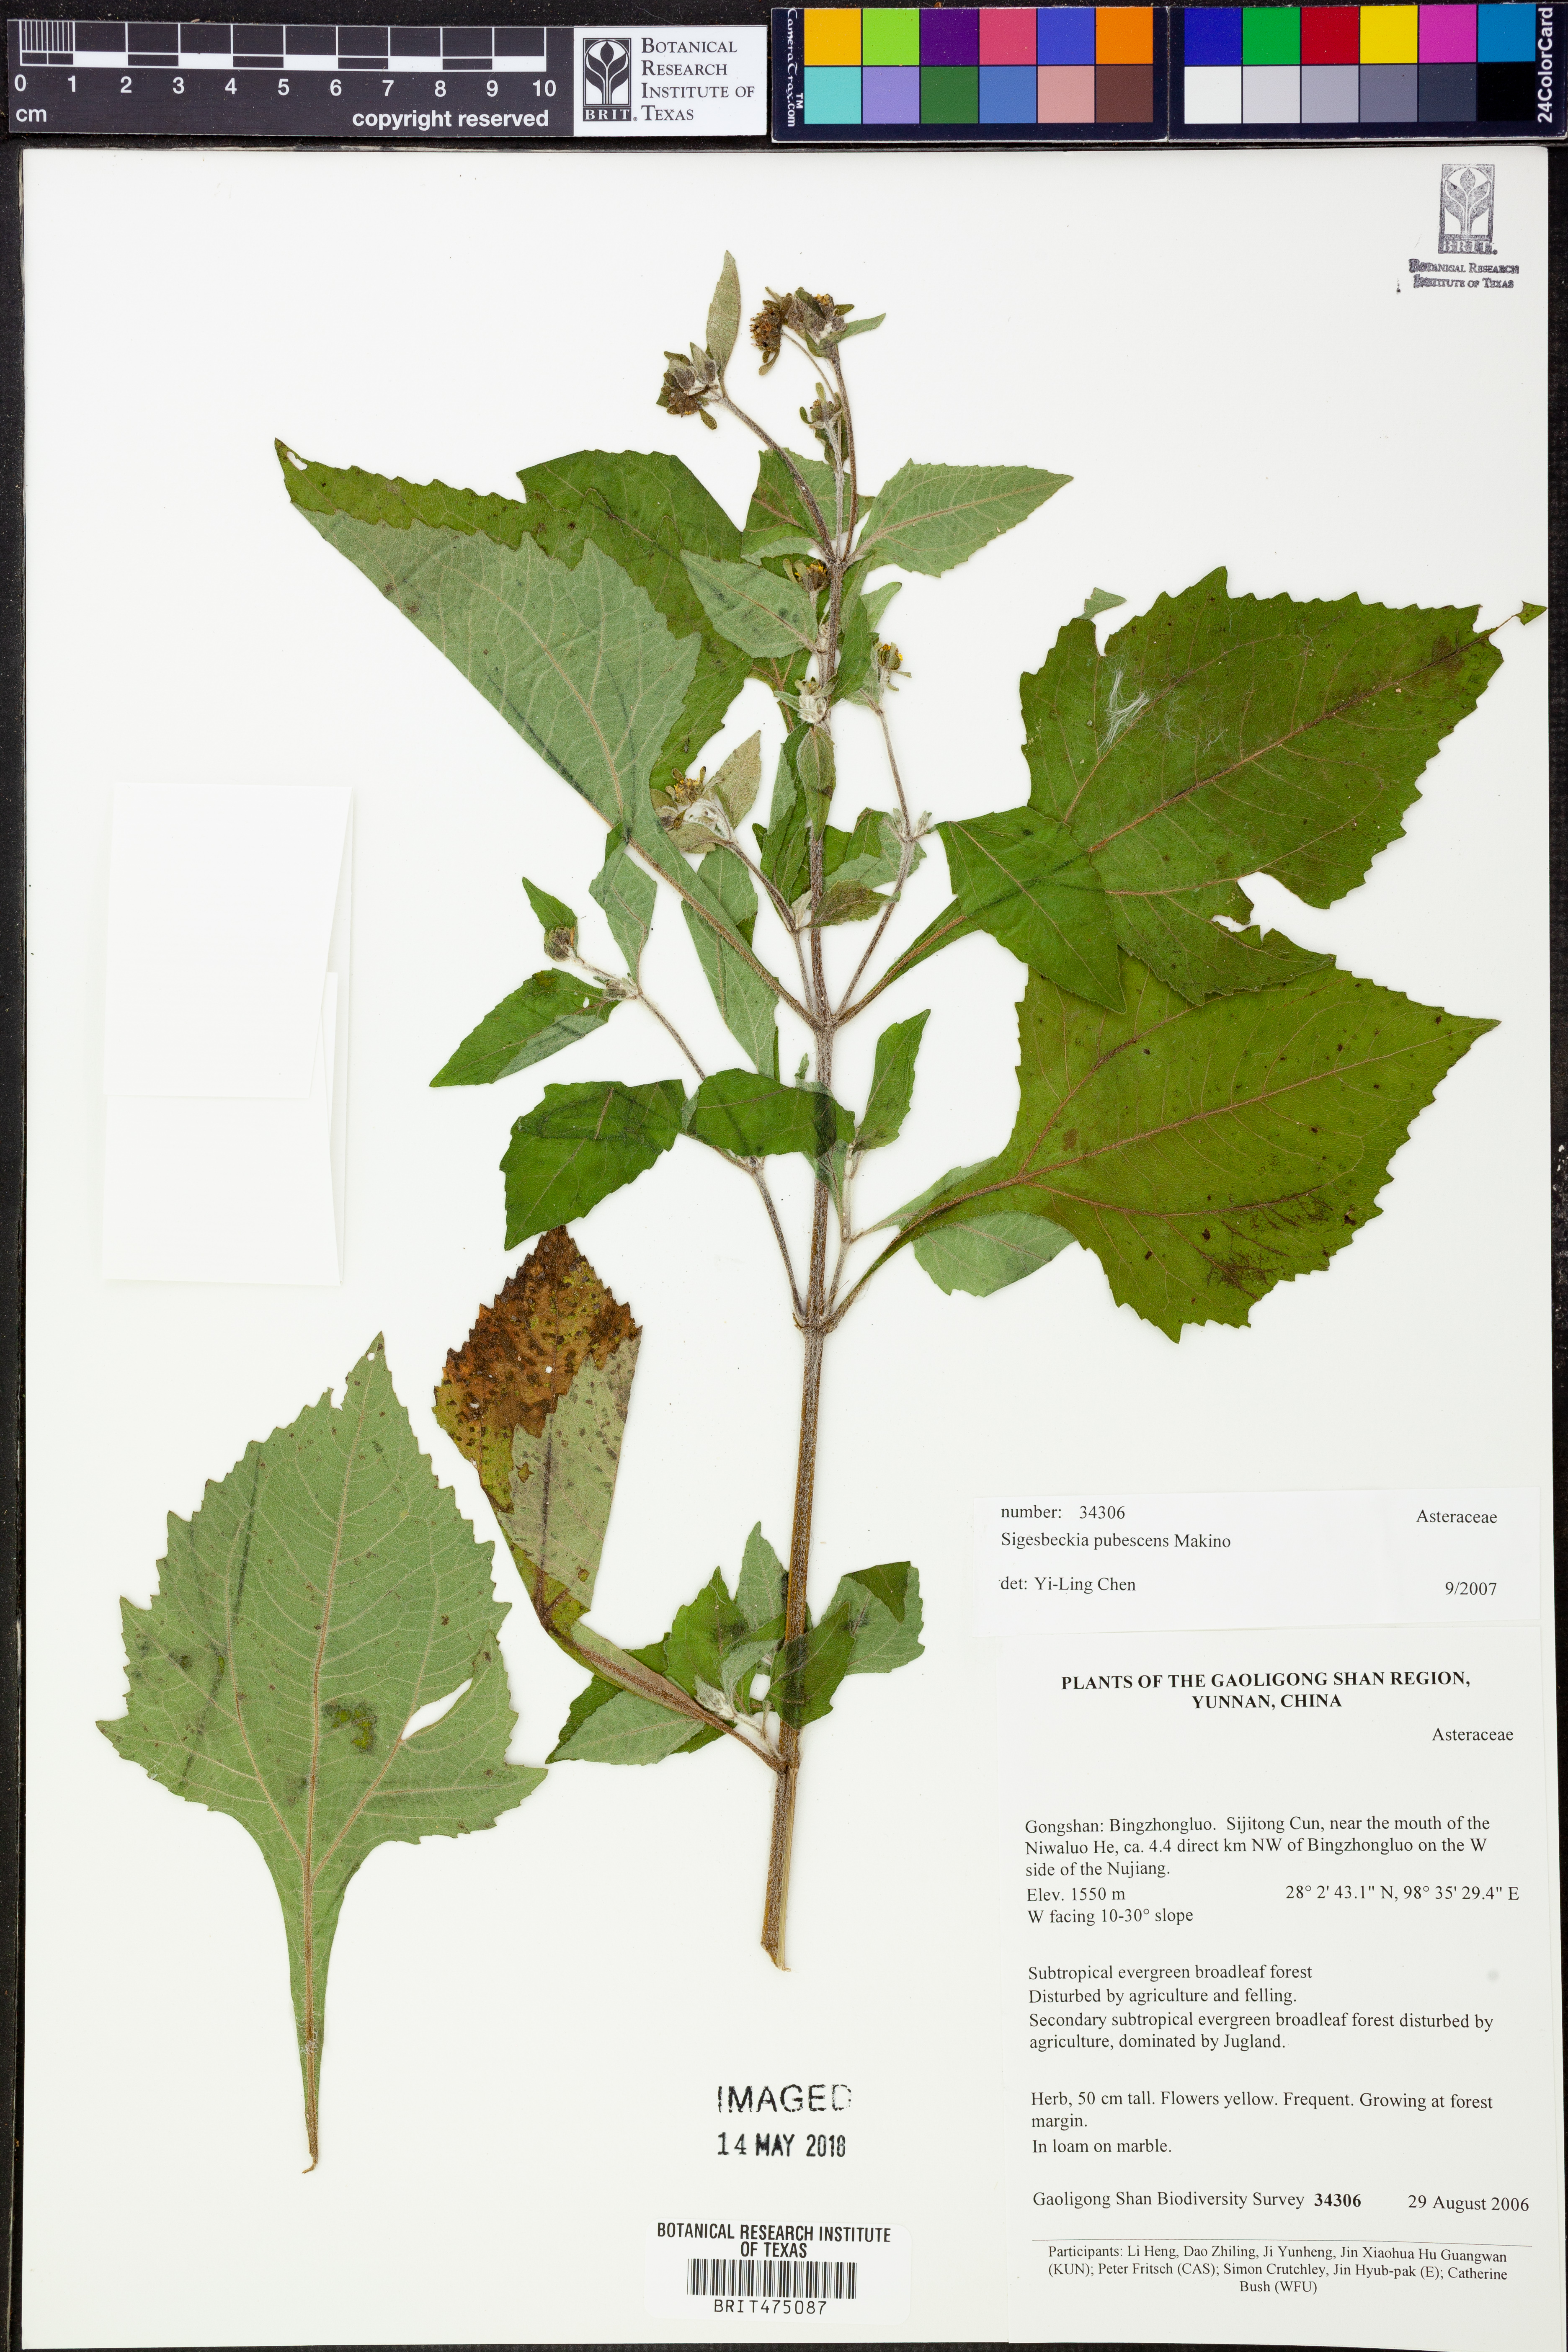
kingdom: Plantae
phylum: Tracheophyta
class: Magnoliopsida
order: Asterales
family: Asteraceae
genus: Sigesbeckia
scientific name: Sigesbeckia pubescens
